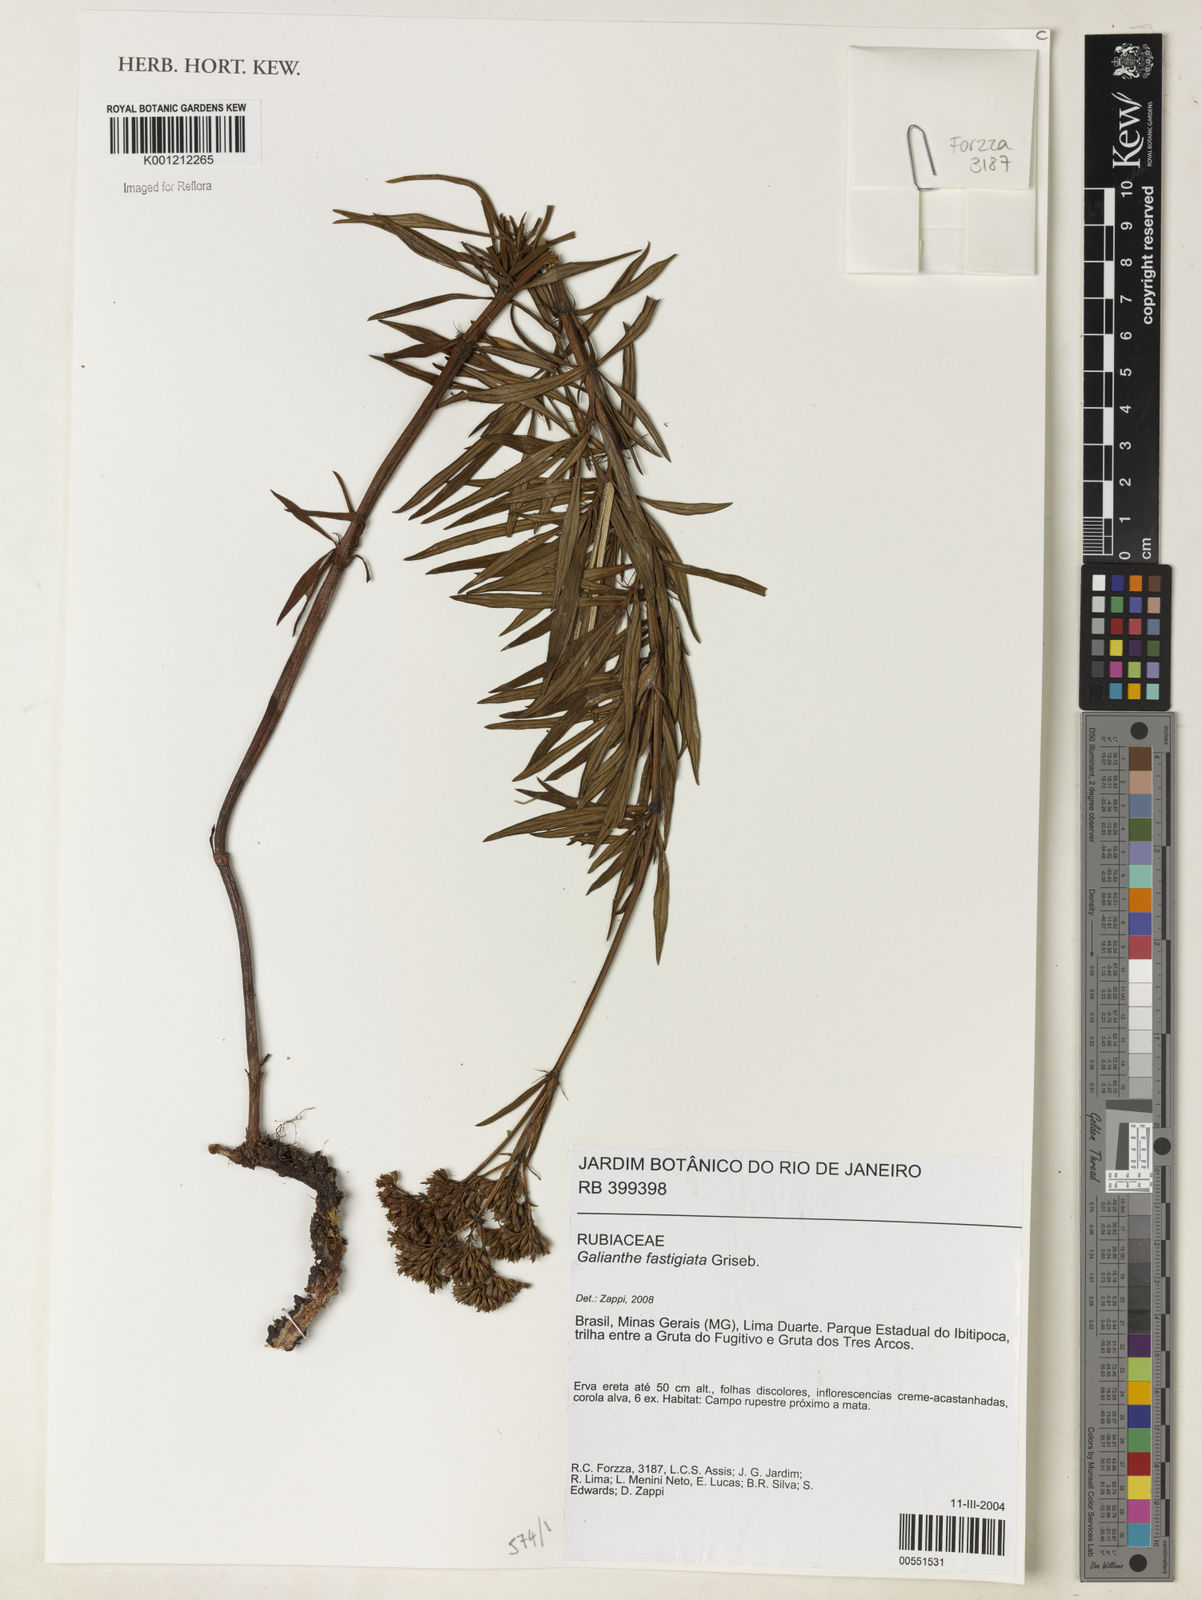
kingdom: Plantae
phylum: Tracheophyta
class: Magnoliopsida
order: Gentianales
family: Rubiaceae
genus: Galianthe
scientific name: Galianthe fastigiata
